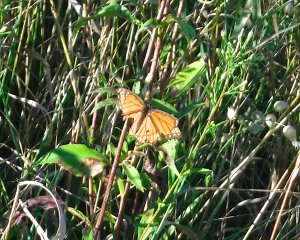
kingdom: Animalia
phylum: Arthropoda
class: Insecta
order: Lepidoptera
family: Nymphalidae
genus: Limenitis
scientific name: Limenitis archippus
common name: Viceroy
